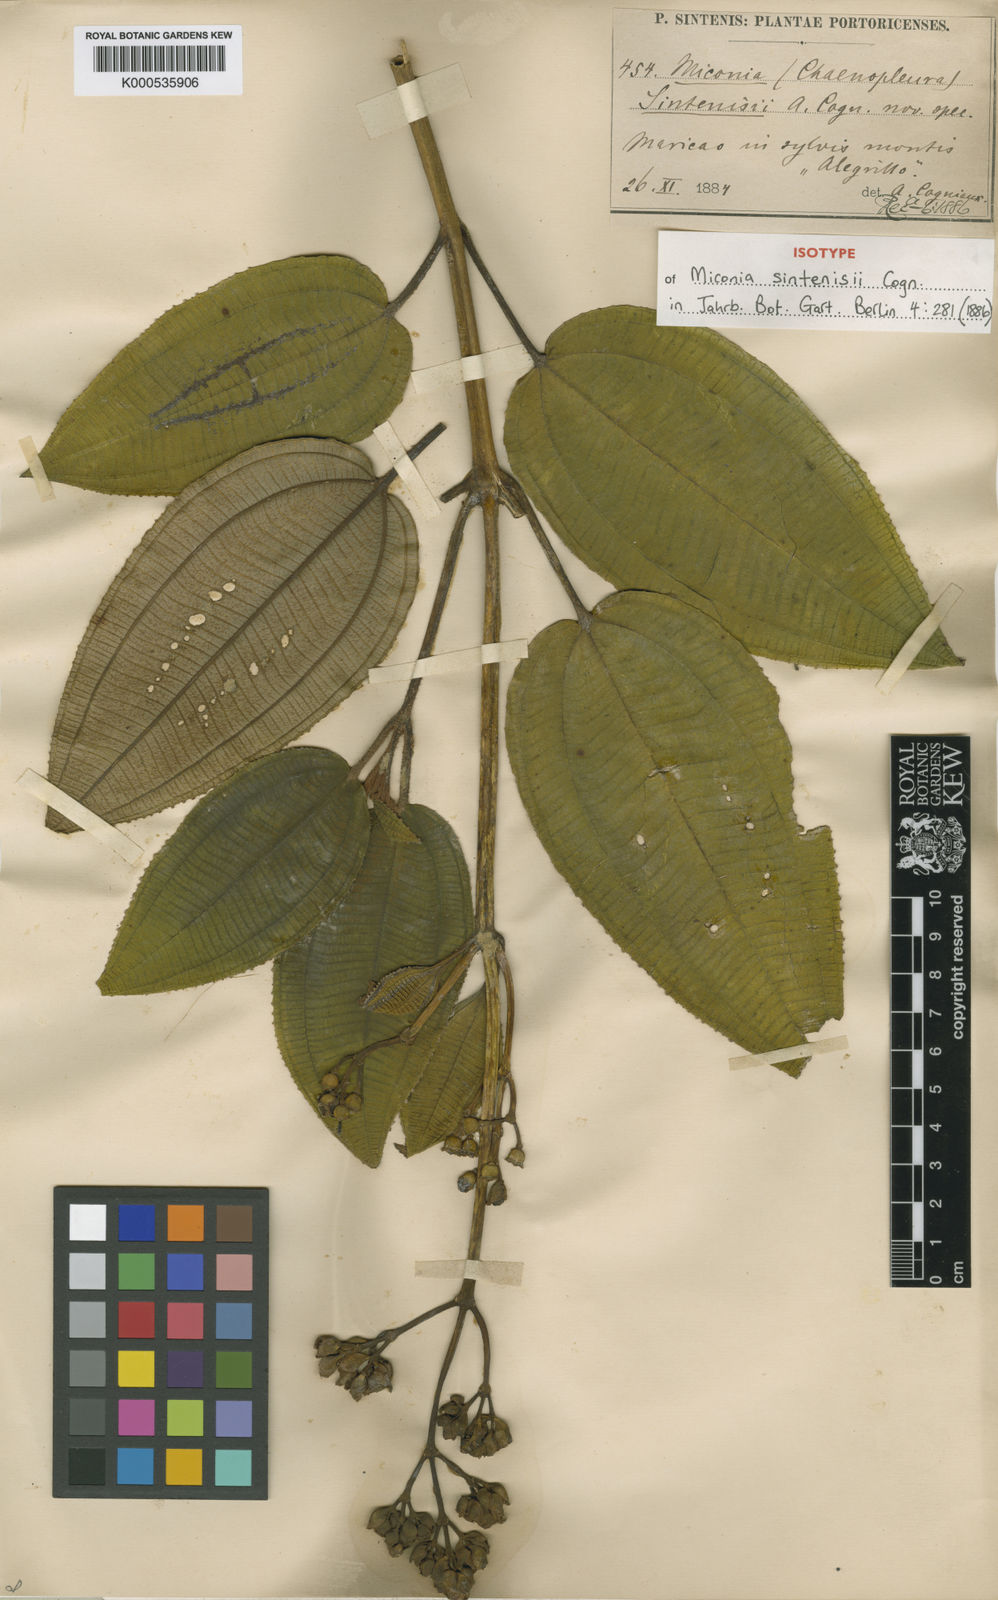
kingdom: Plantae
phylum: Tracheophyta
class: Magnoliopsida
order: Myrtales
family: Melastomataceae
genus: Miconia
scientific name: Miconia sintenisii
